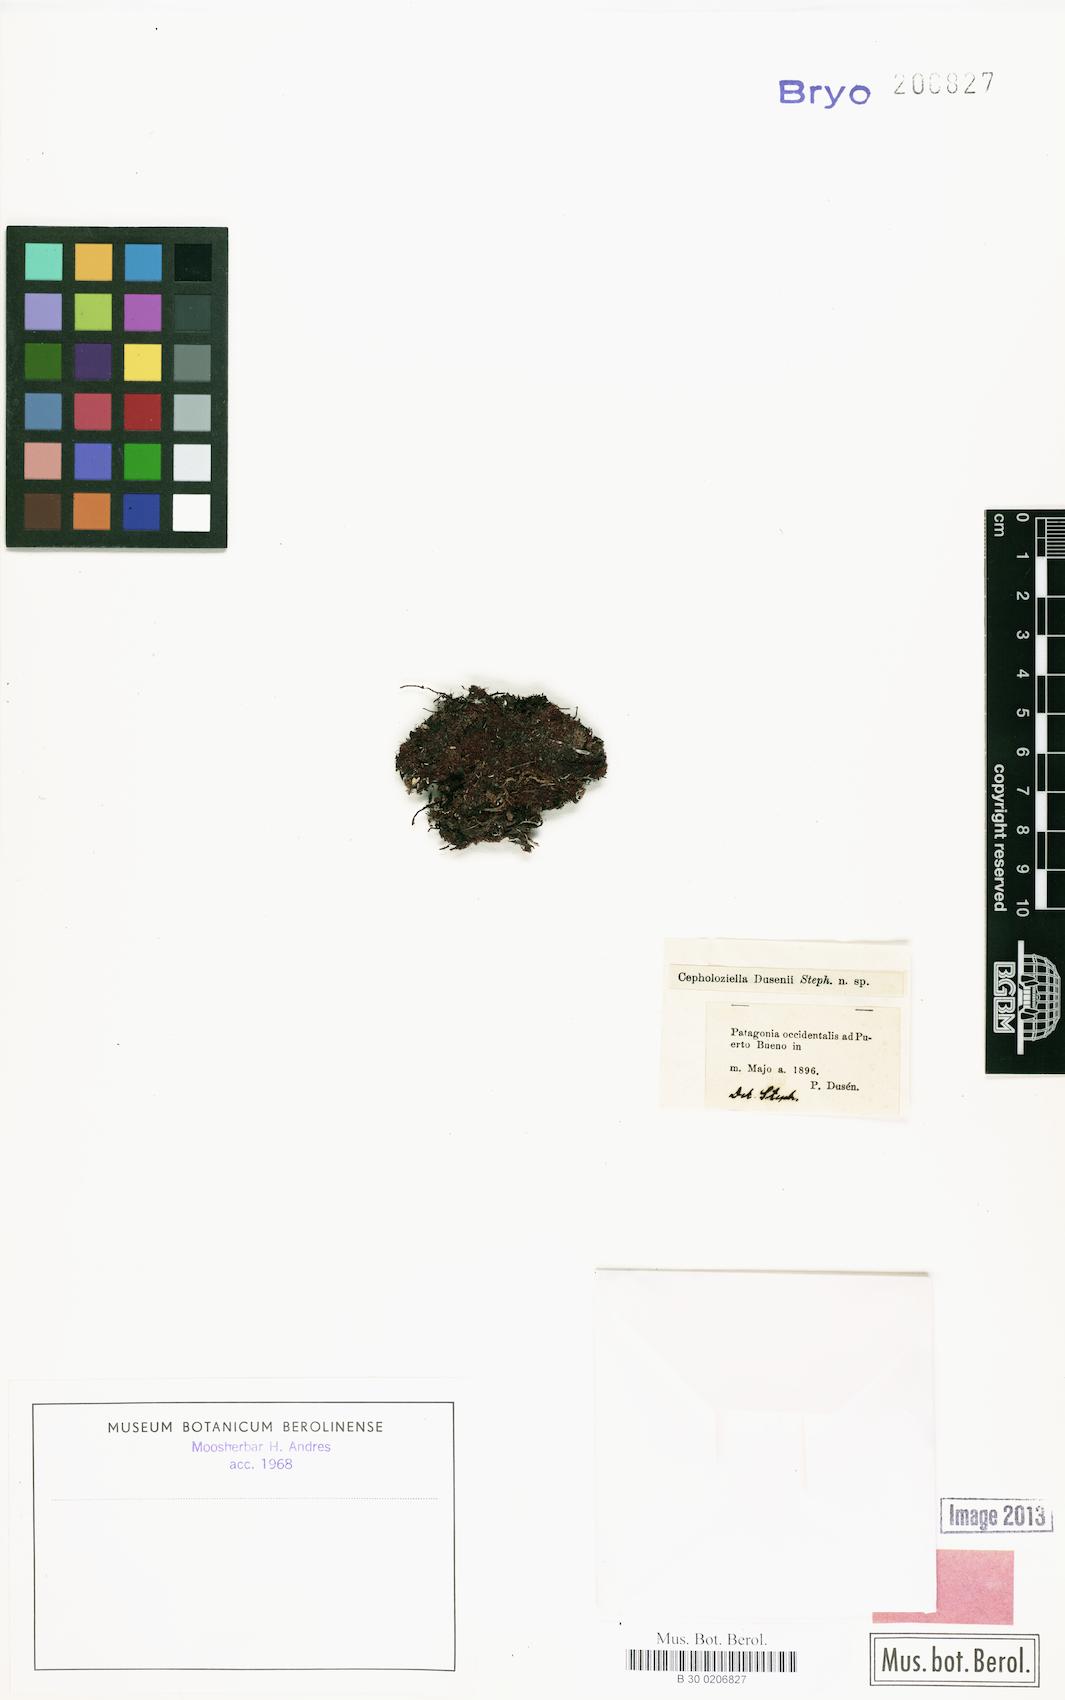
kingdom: Plantae
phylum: Marchantiophyta
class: Jungermanniopsida
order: Jungermanniales
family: Cephaloziellaceae
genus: Cephaloziella
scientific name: Cephaloziella dusenii
